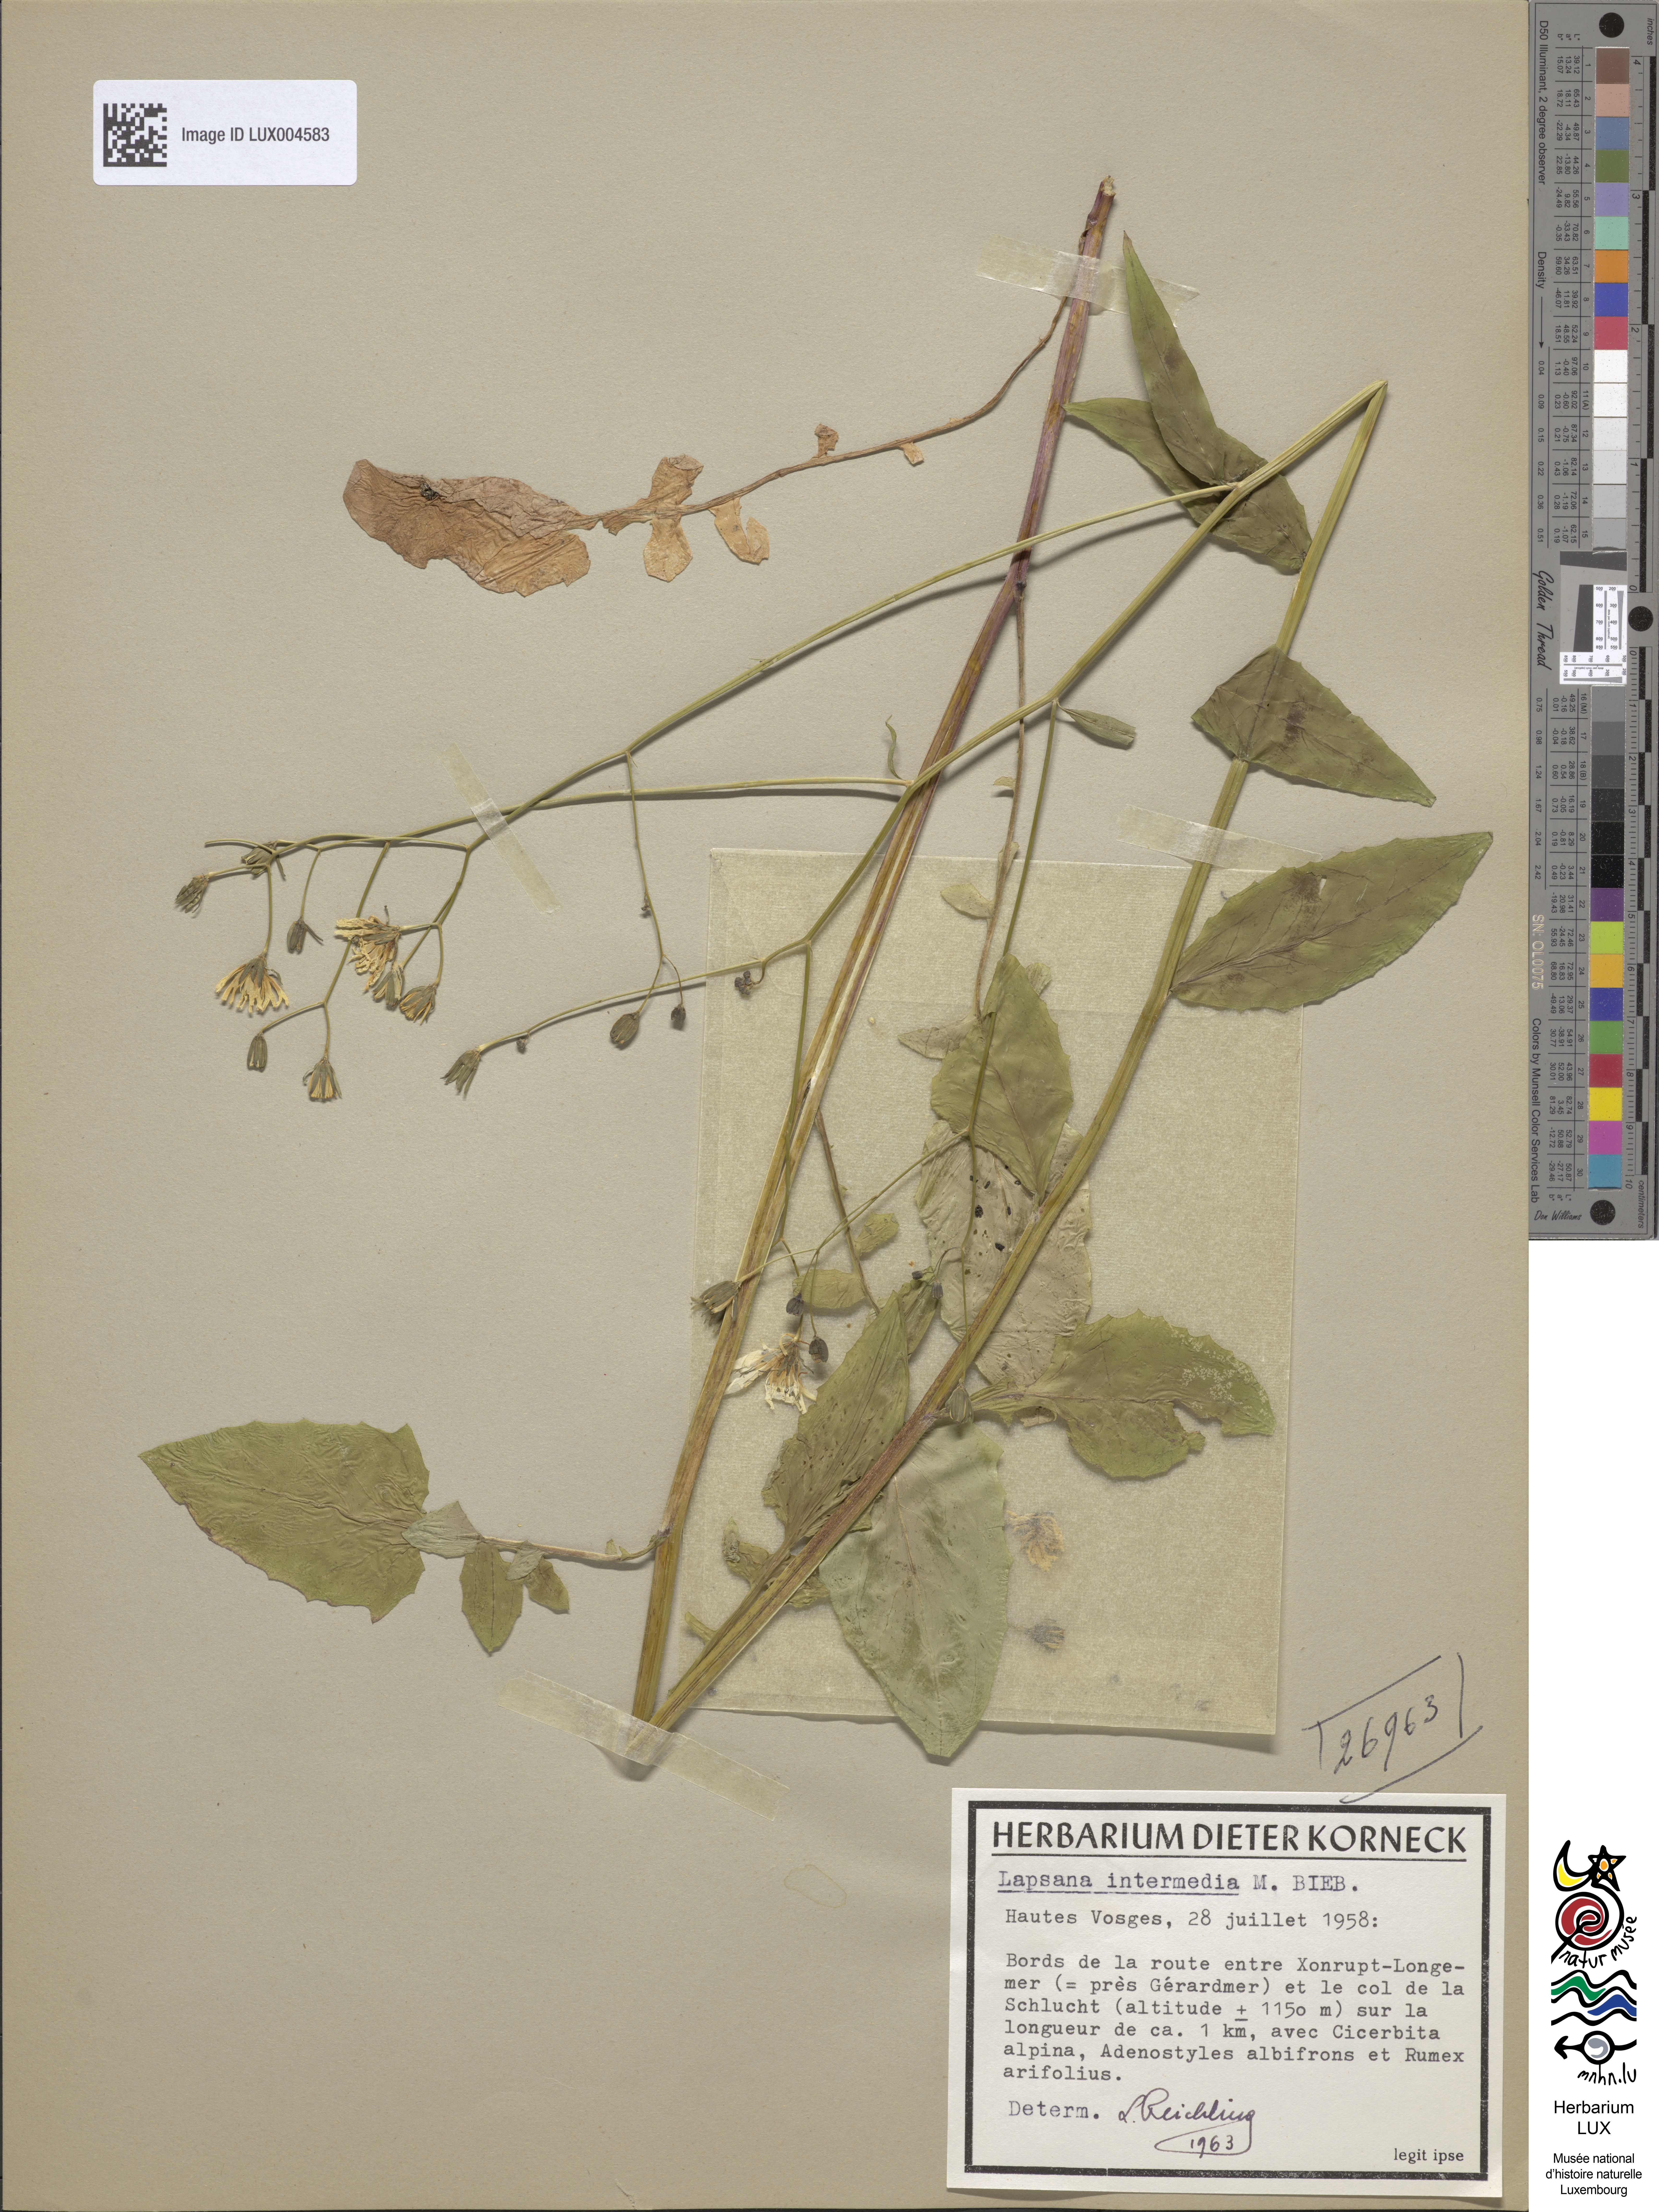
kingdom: Plantae
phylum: Tracheophyta
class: Magnoliopsida
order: Asterales
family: Asteraceae
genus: Lapsana
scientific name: Lapsana communis
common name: Nipplewort
